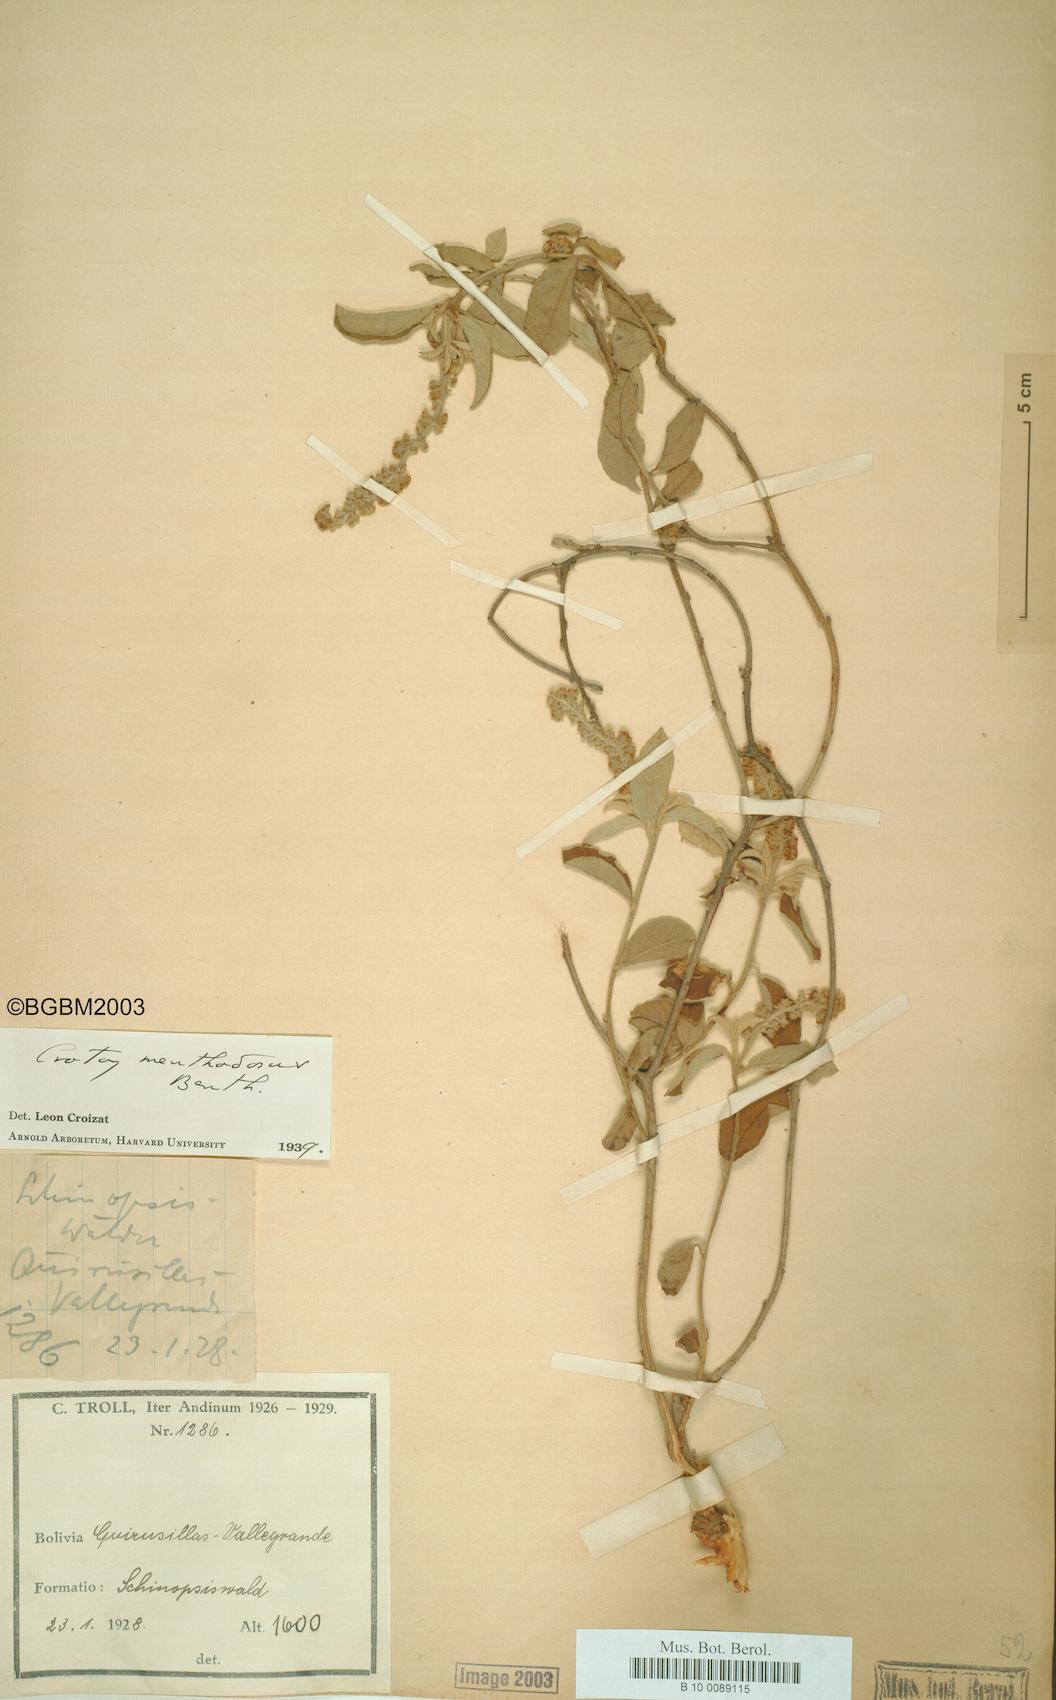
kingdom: Plantae
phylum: Tracheophyta
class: Magnoliopsida
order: Malpighiales
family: Euphorbiaceae
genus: Croton
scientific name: Croton menthodorus
